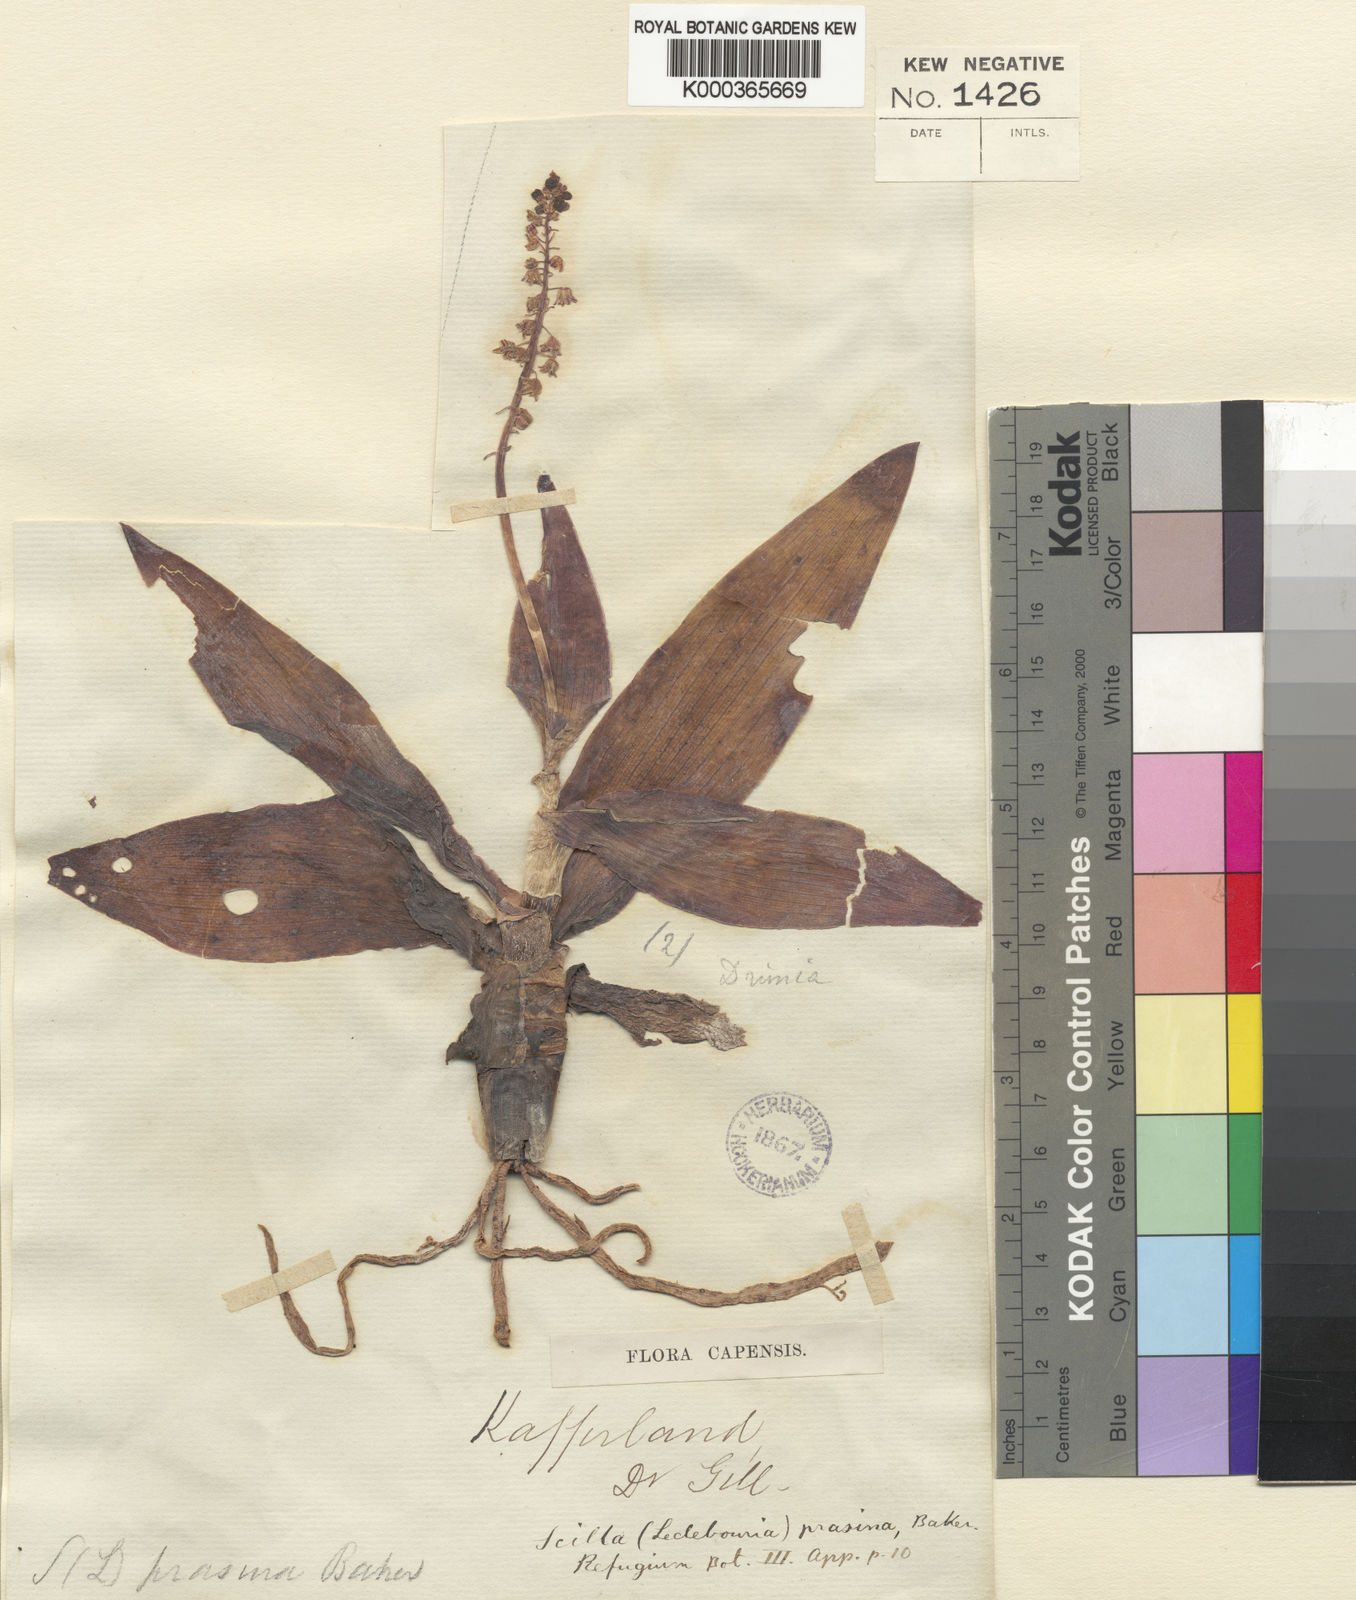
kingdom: Plantae
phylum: Tracheophyta
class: Liliopsida
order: Asparagales
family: Asparagaceae
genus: Ledebouria
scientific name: Ledebouria undulata
